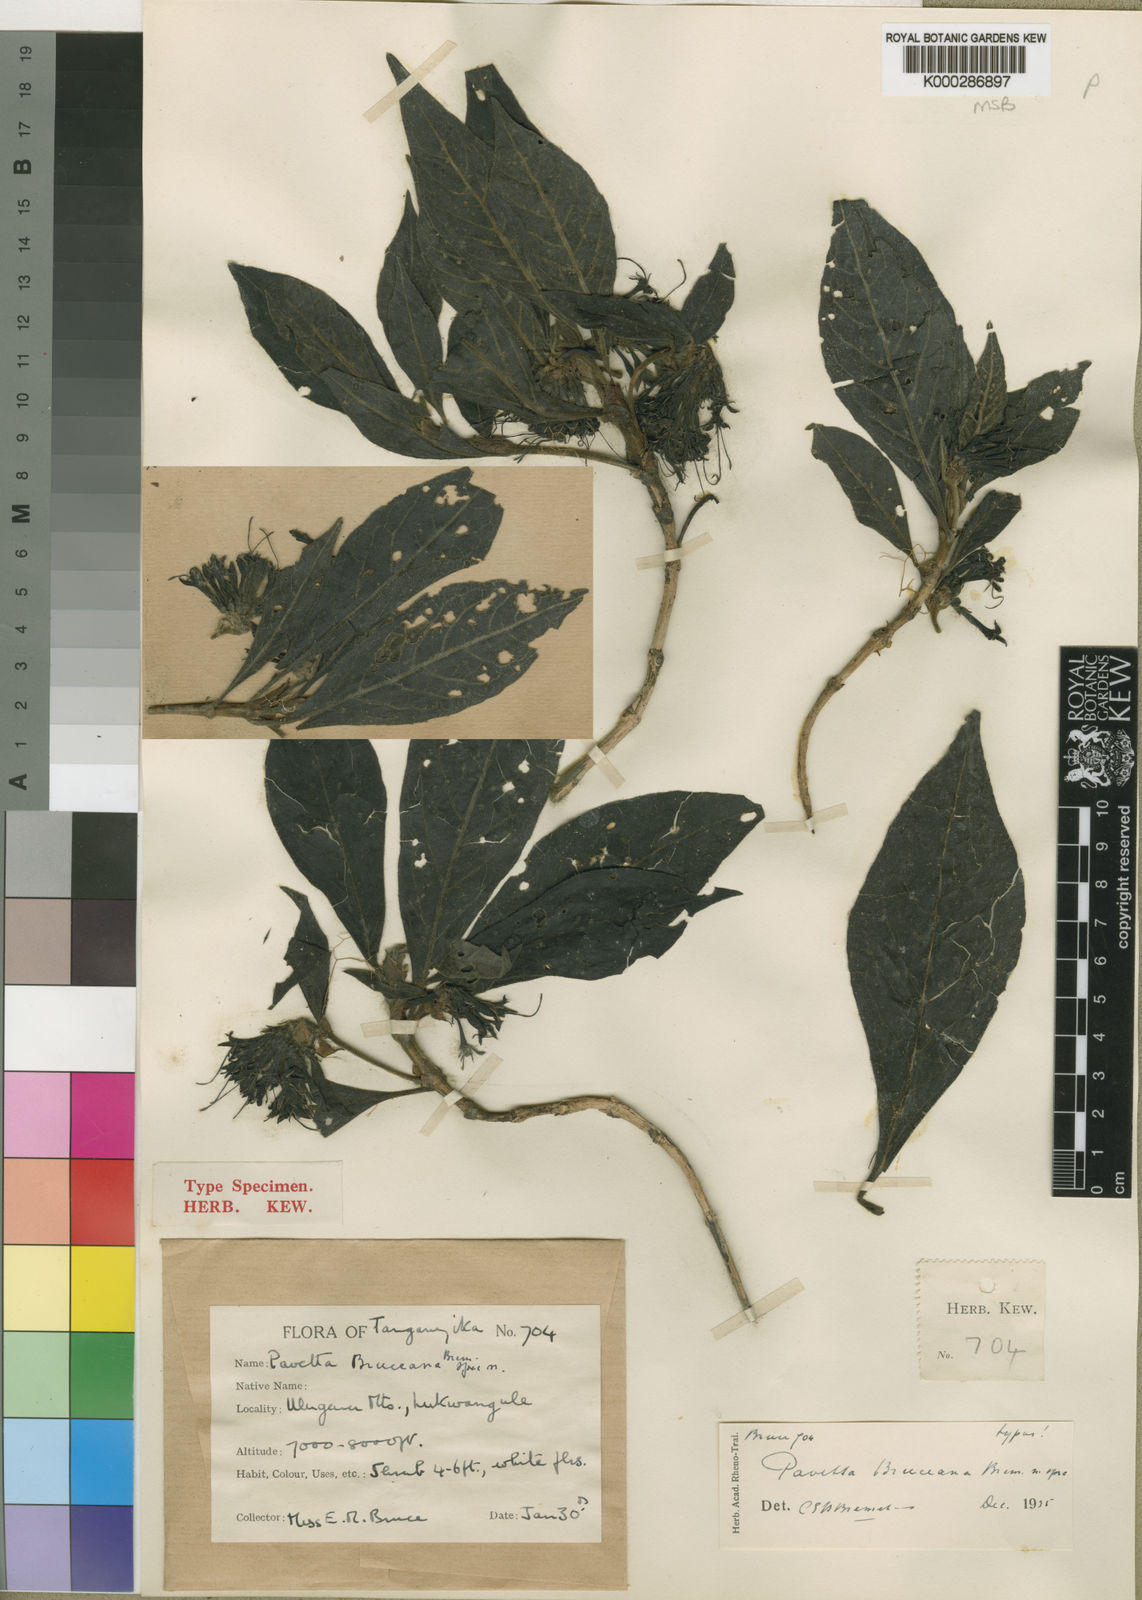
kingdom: Plantae
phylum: Tracheophyta
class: Magnoliopsida
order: Gentianales
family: Rubiaceae
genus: Pavetta
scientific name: Pavetta bruceana
